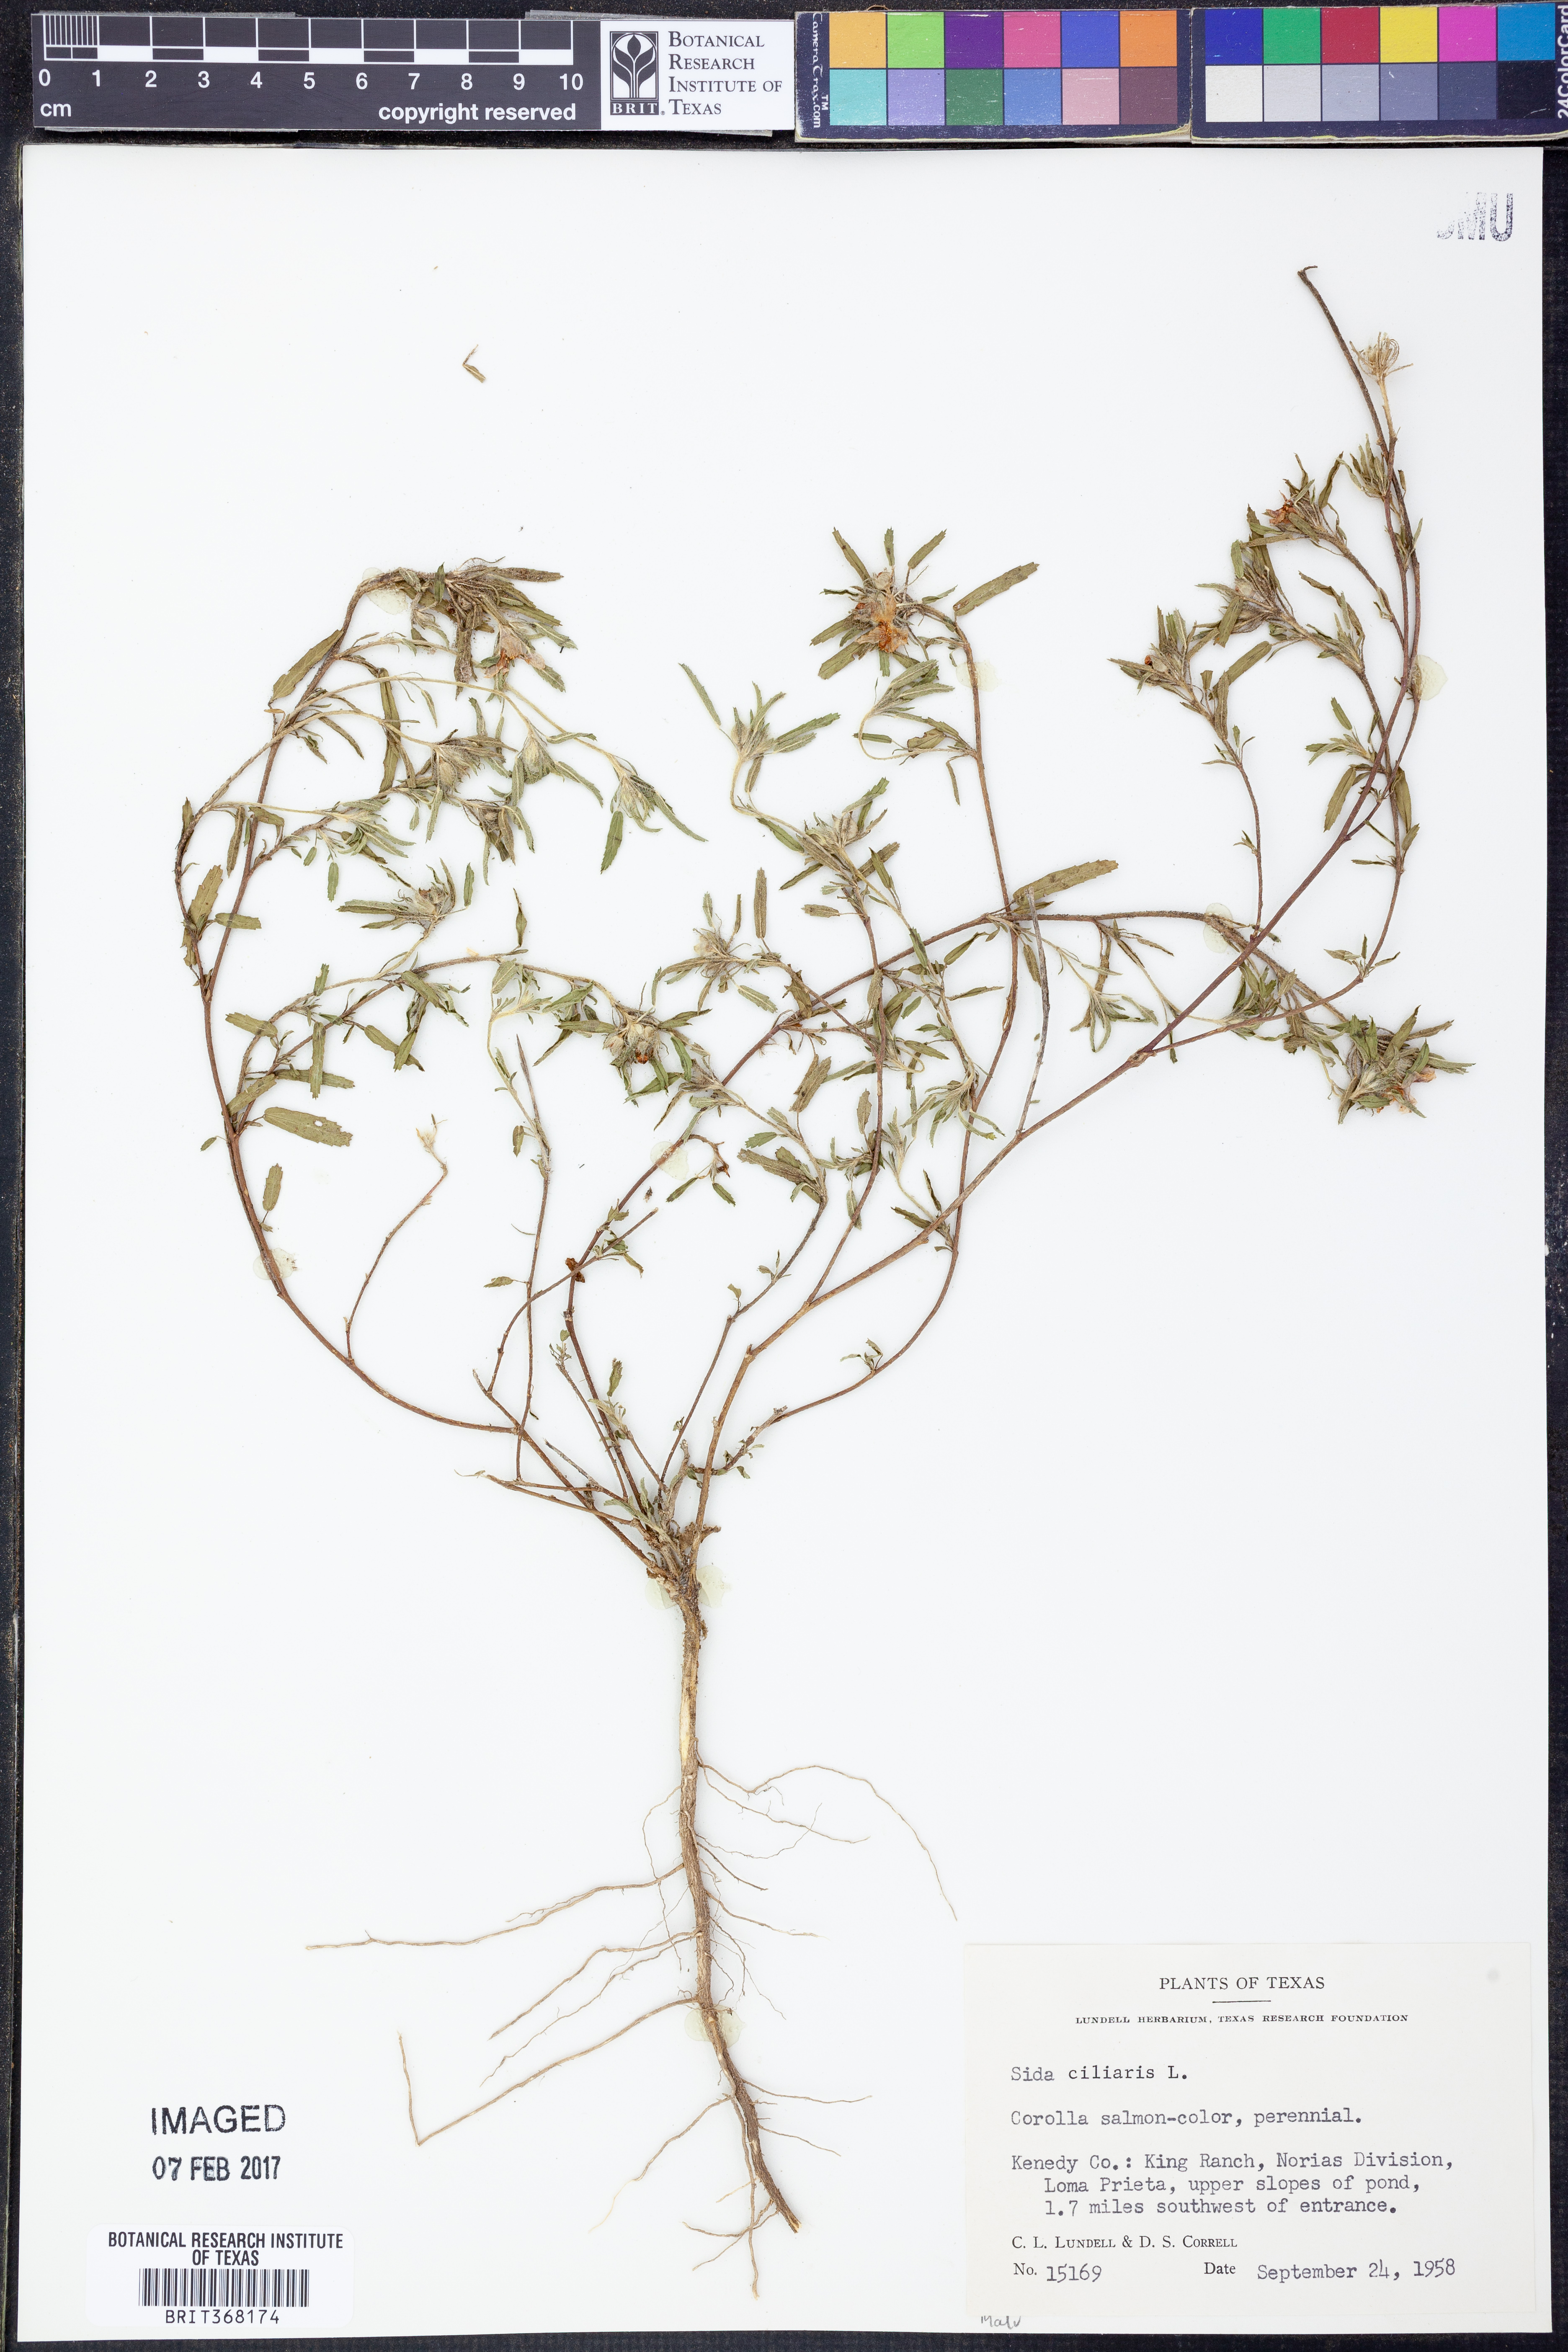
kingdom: Plantae
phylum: Tracheophyta
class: Magnoliopsida
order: Malvales
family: Malvaceae
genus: Sida
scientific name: Sida ciliaris
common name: Bracted fanpetals
